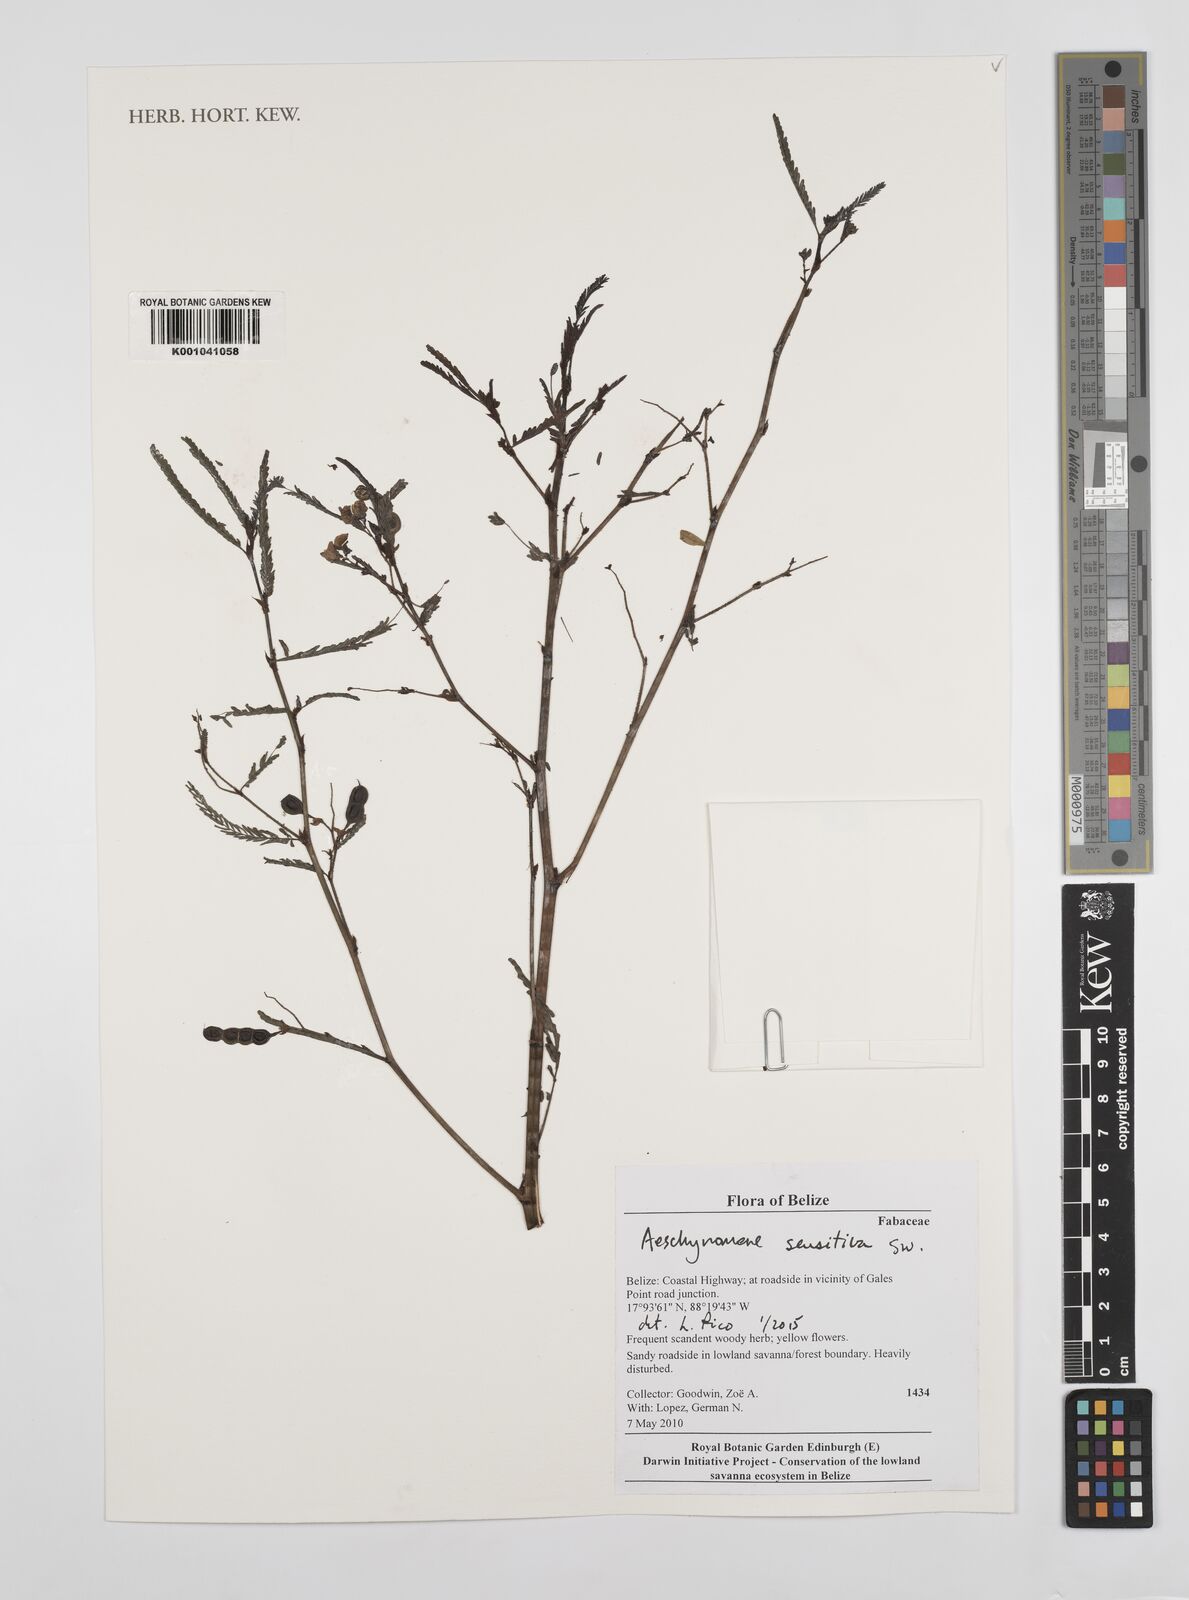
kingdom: Plantae
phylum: Tracheophyta
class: Magnoliopsida
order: Fabales
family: Fabaceae
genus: Aeschynomene
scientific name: Aeschynomene sensitiva
